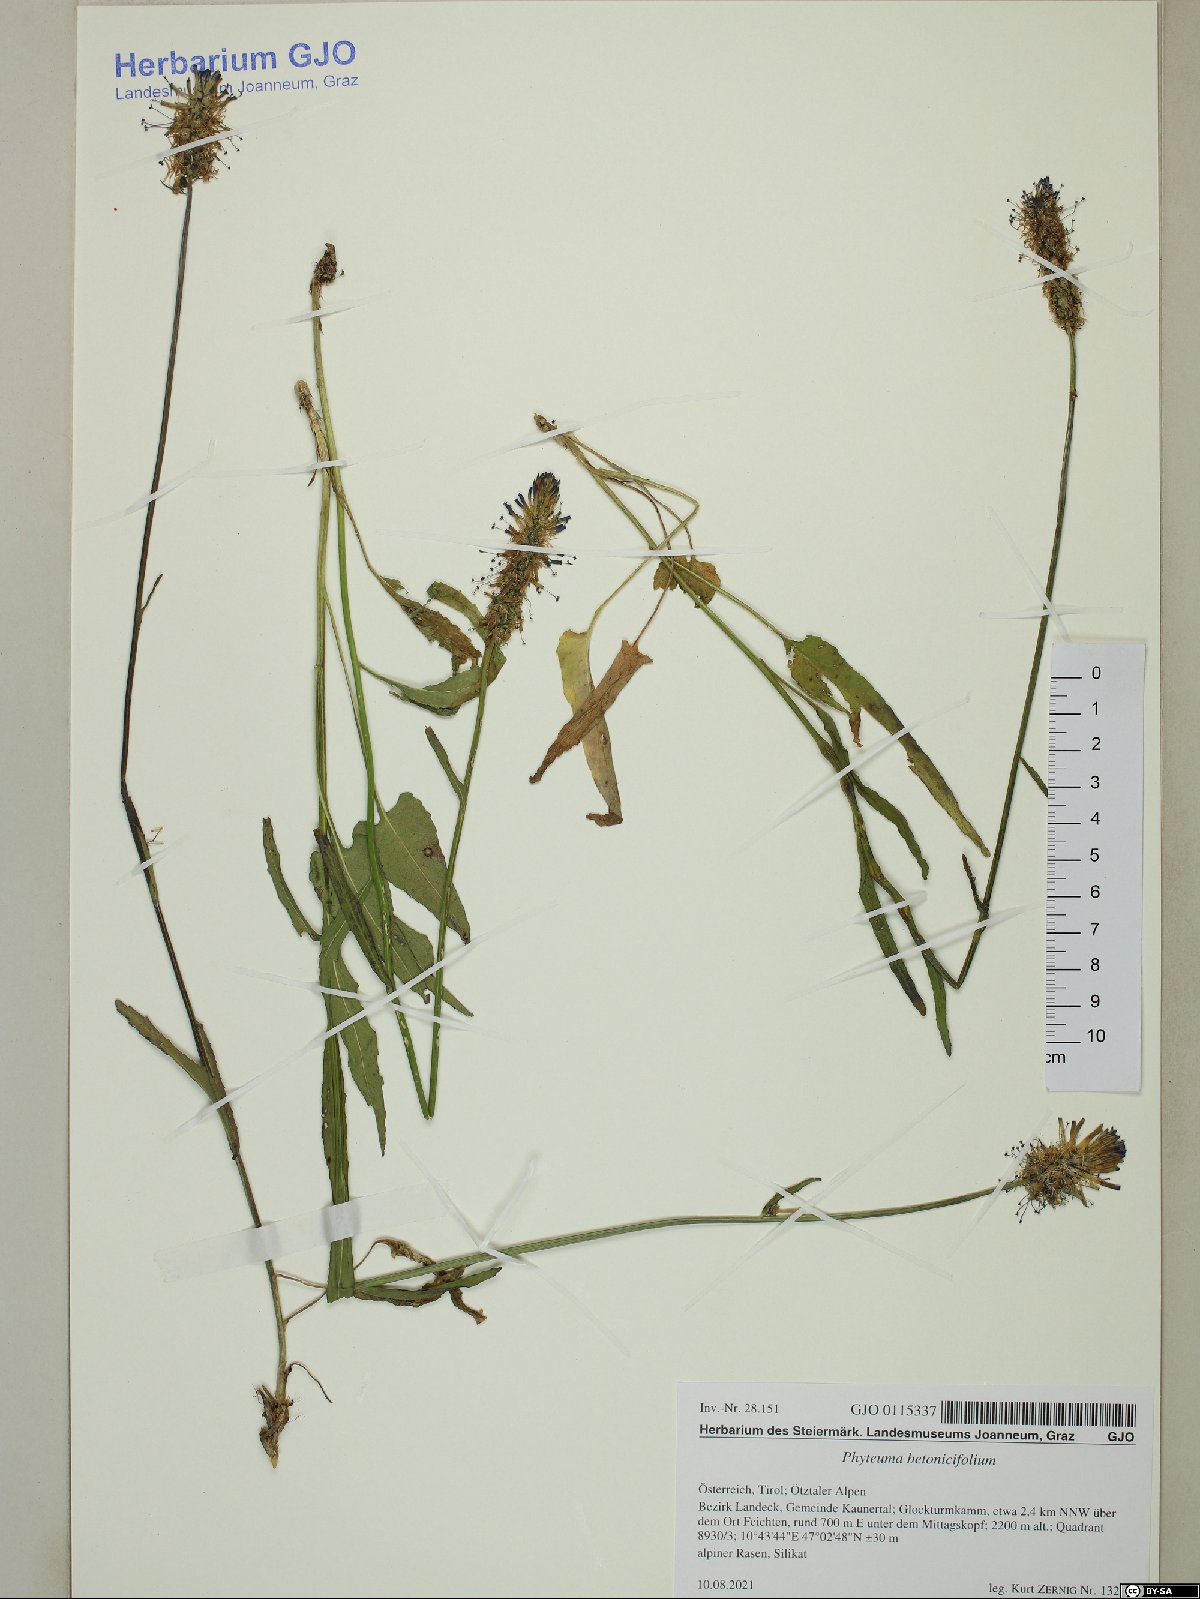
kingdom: Plantae
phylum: Tracheophyta
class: Magnoliopsida
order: Asterales
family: Campanulaceae
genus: Phyteuma
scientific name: Phyteuma betonicifolium
